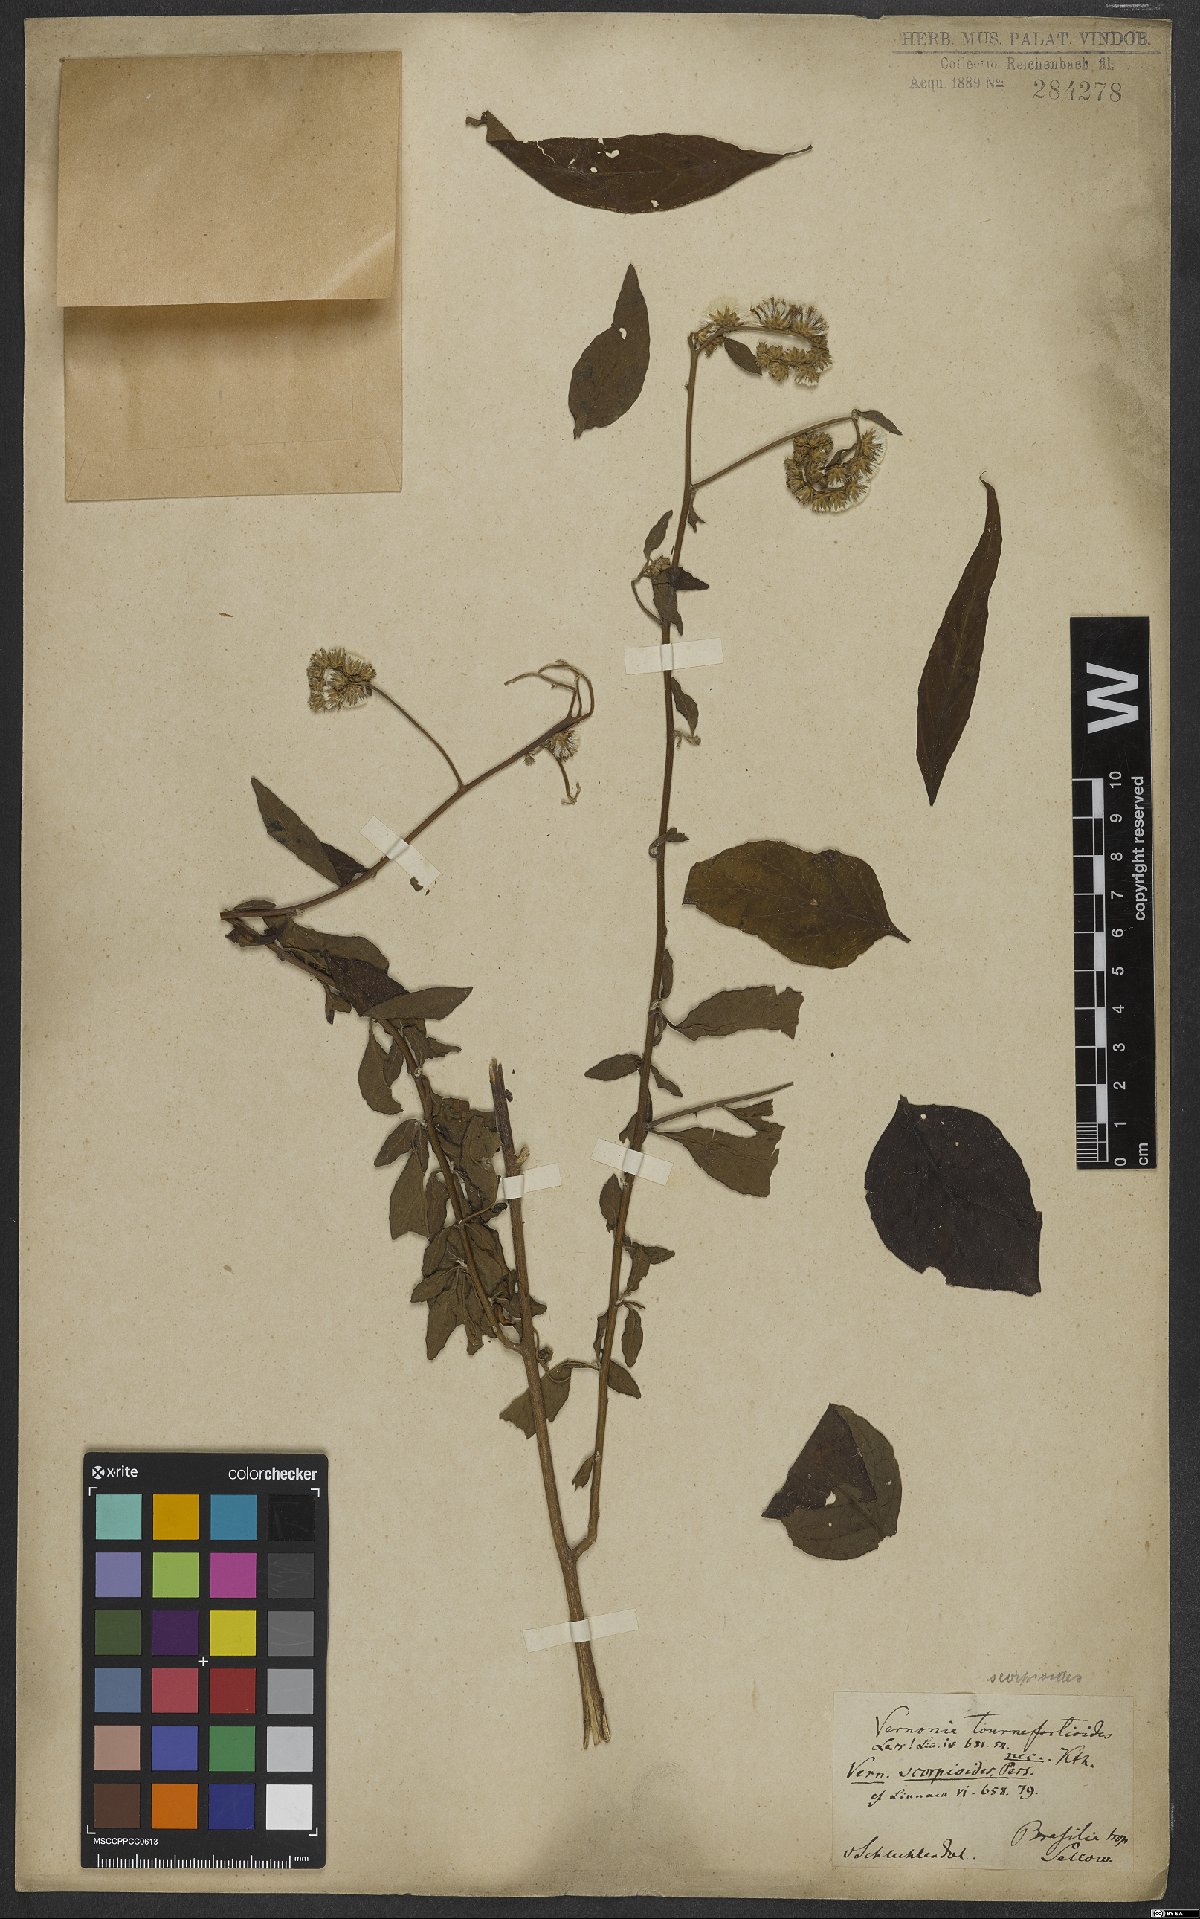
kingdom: Plantae
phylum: Tracheophyta
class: Magnoliopsida
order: Asterales
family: Asteraceae
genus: Cyrtocymura
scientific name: Cyrtocymura scorpioides
